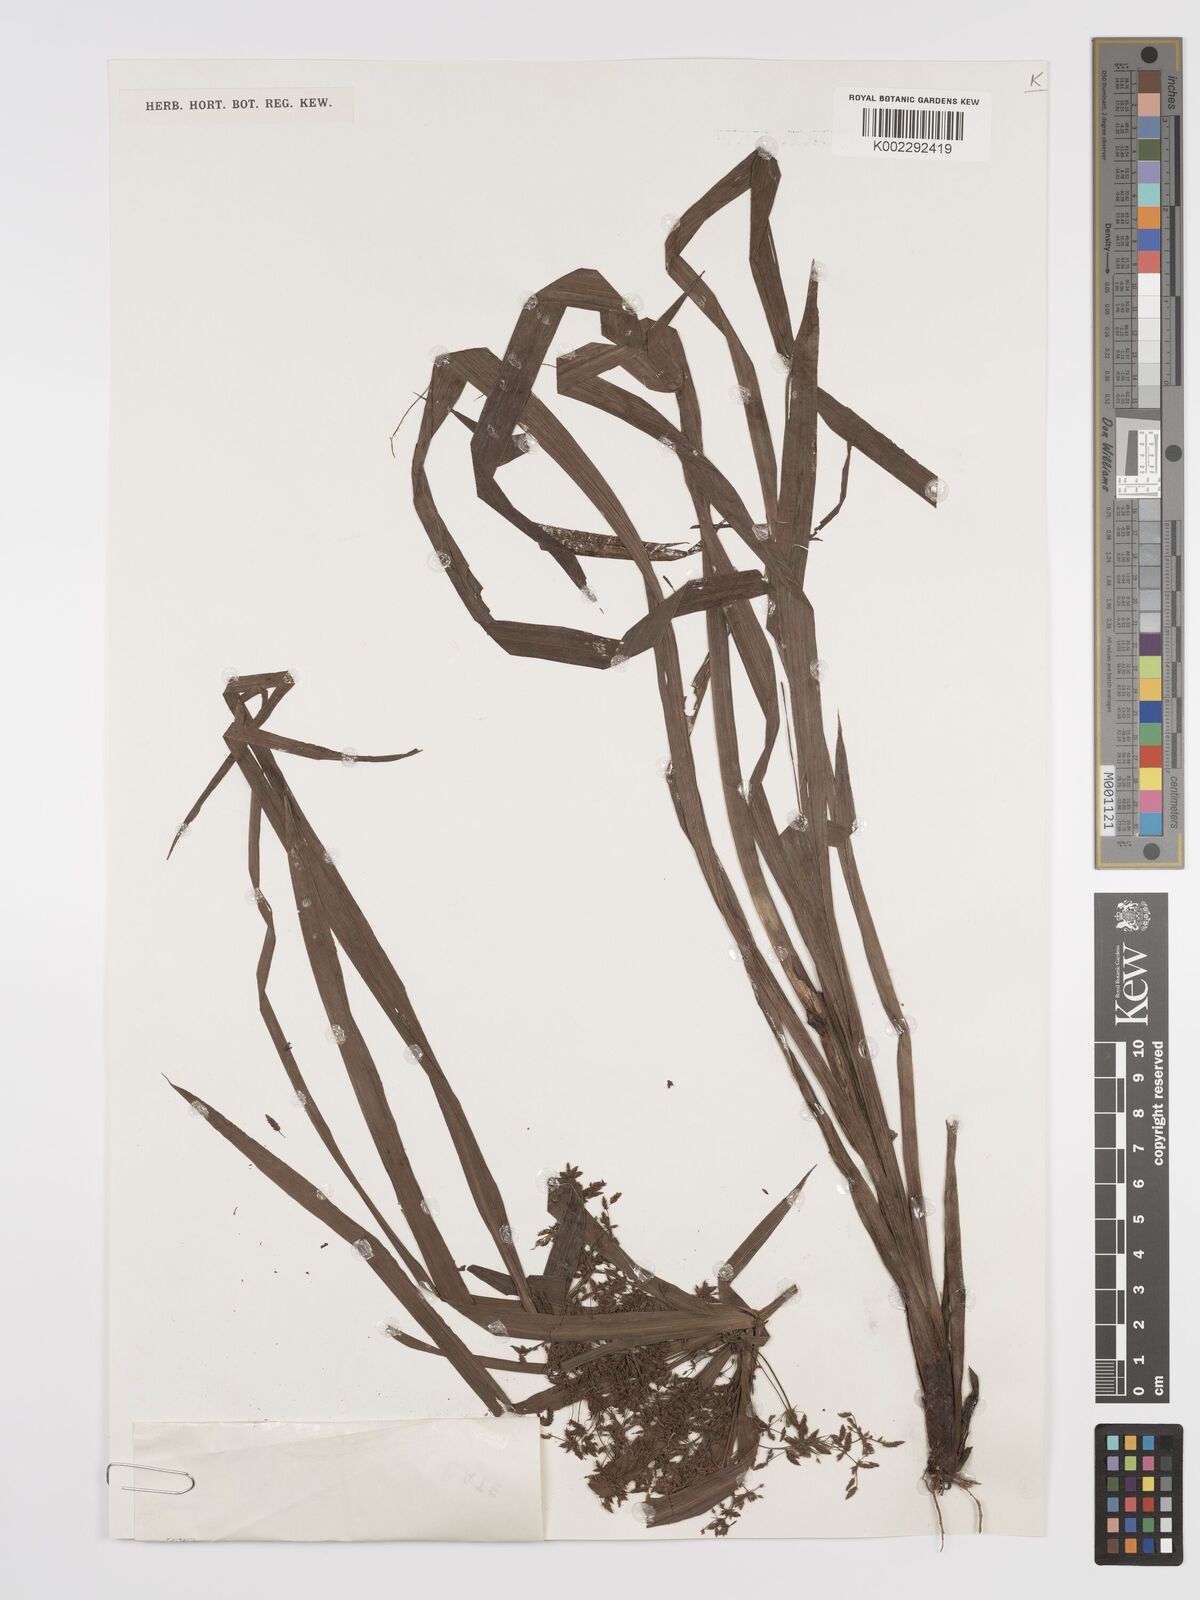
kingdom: Plantae
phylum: Tracheophyta
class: Liliopsida
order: Poales
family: Cyperaceae
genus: Cyperus
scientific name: Cyperus diffusus
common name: Dwarf umbrella grass
